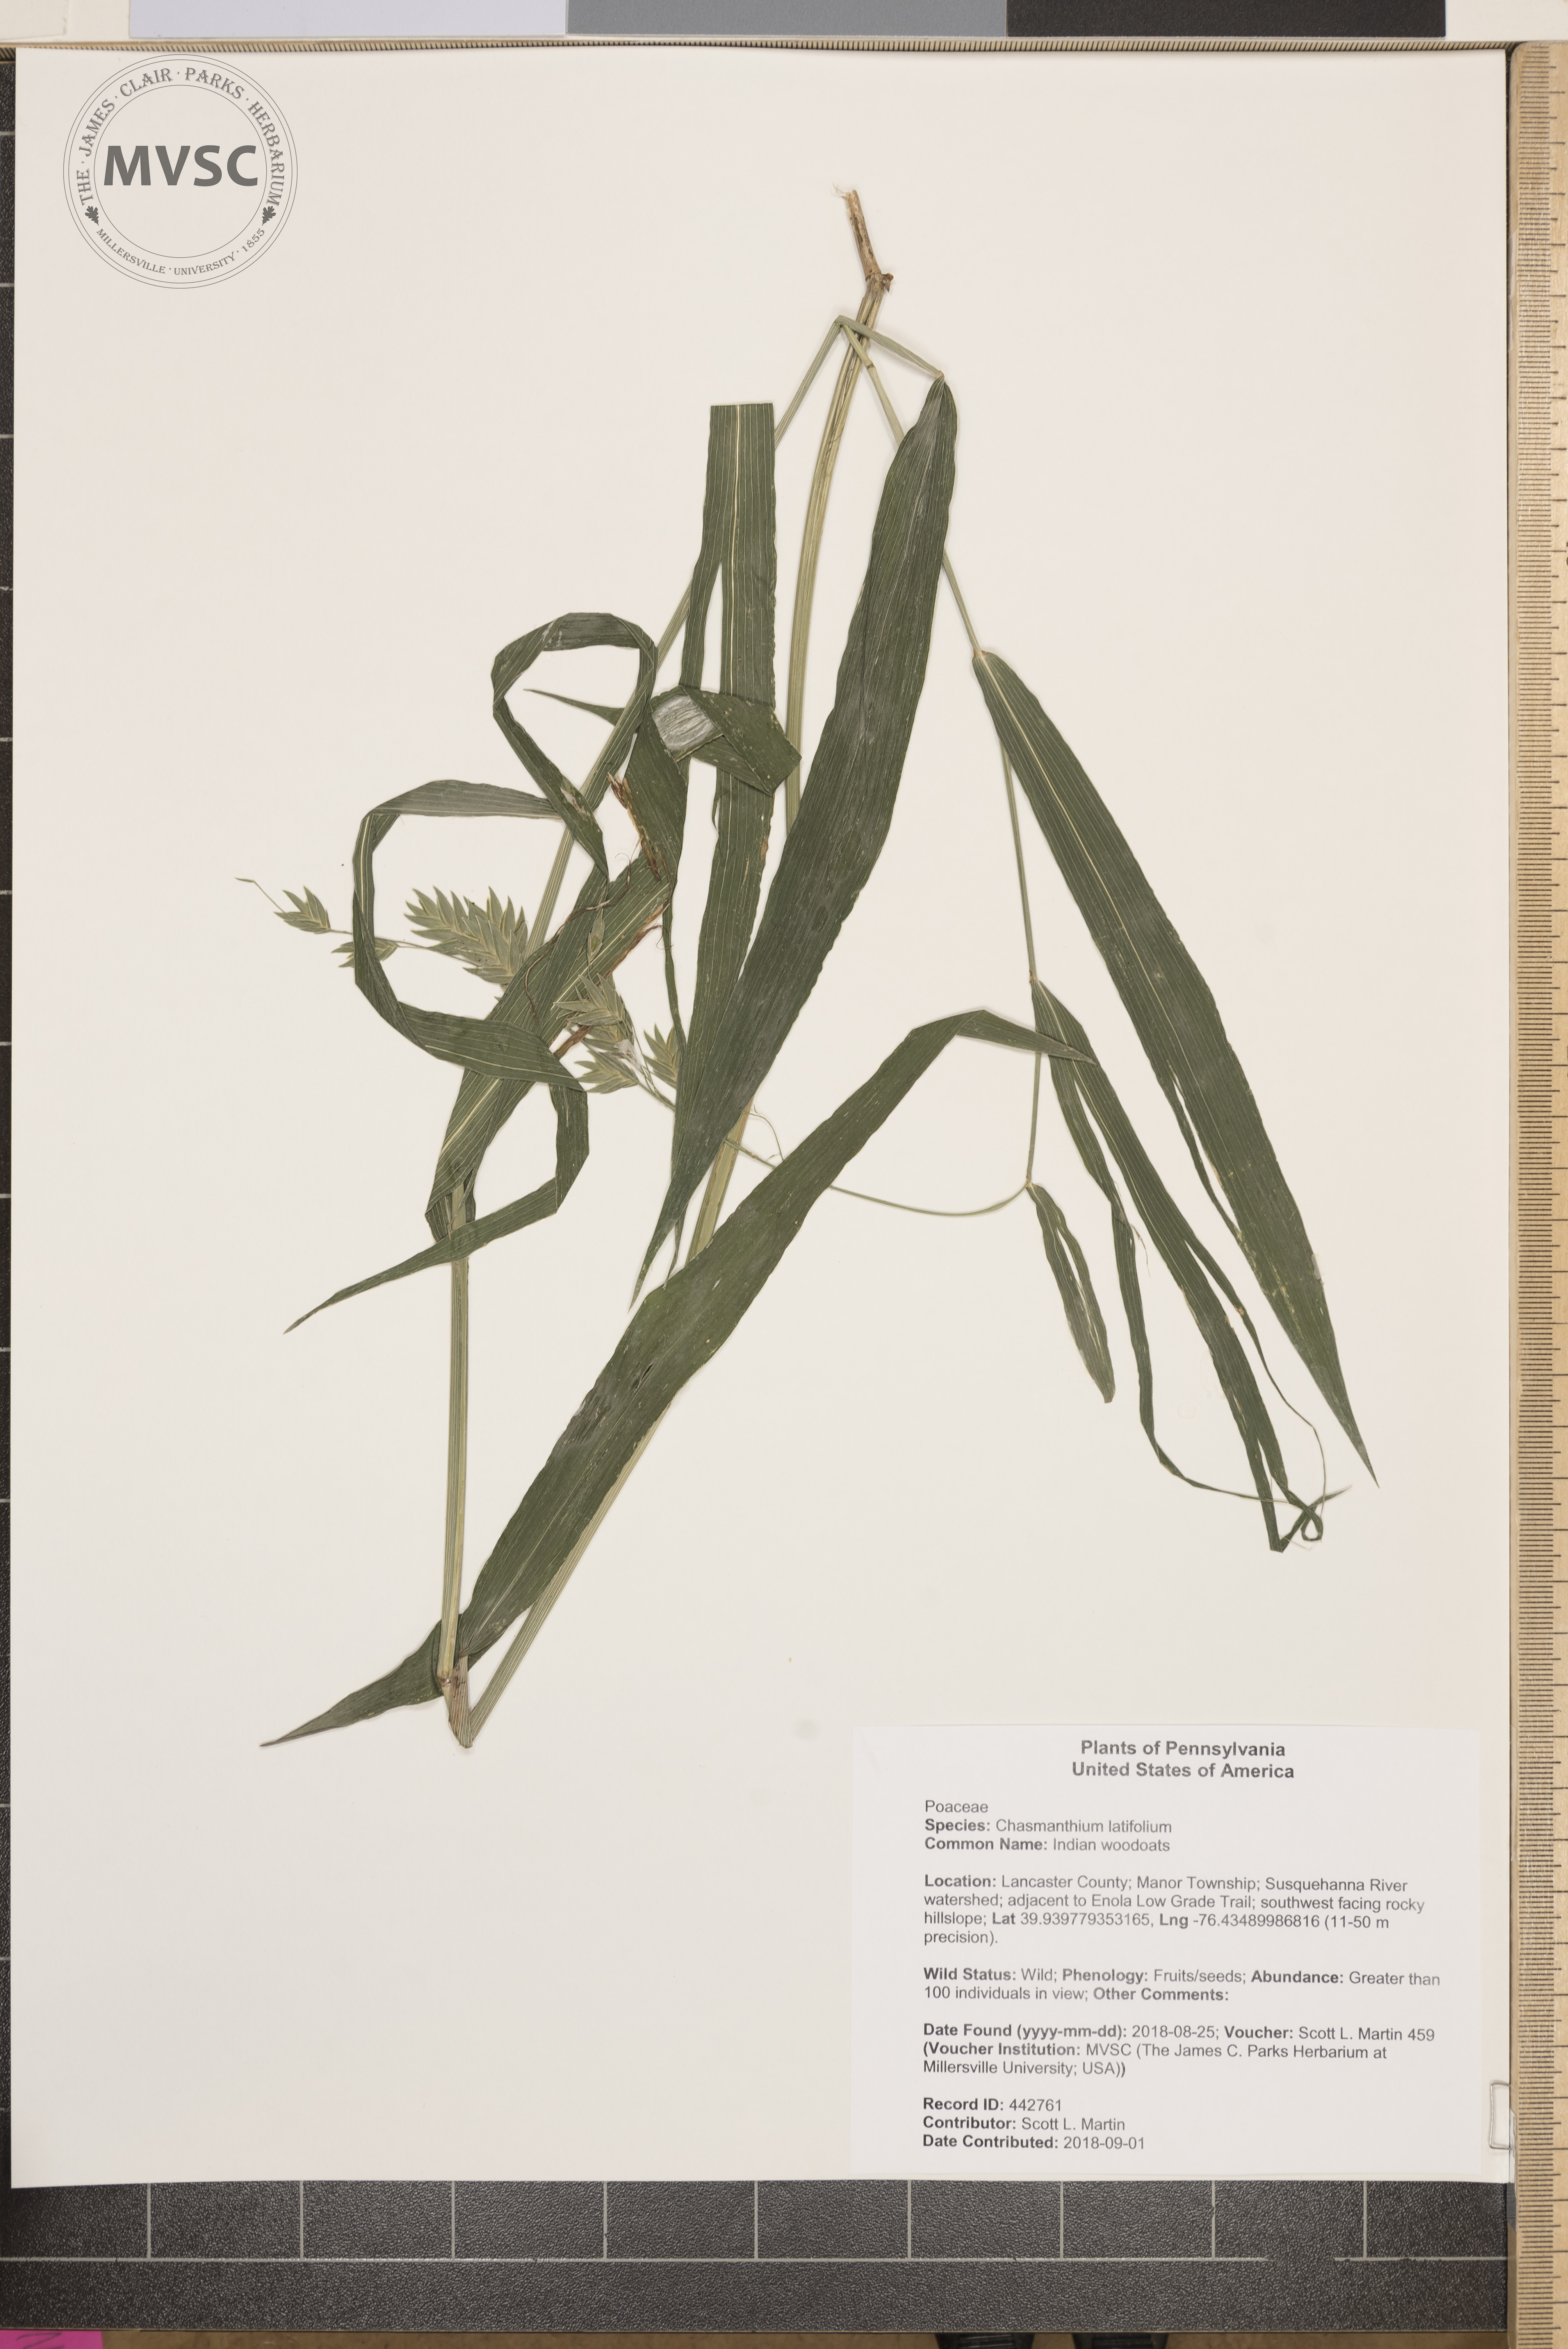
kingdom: Plantae
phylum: Tracheophyta
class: Liliopsida
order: Poales
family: Poaceae
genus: Chasmanthium
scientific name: Chasmanthium latifolium
